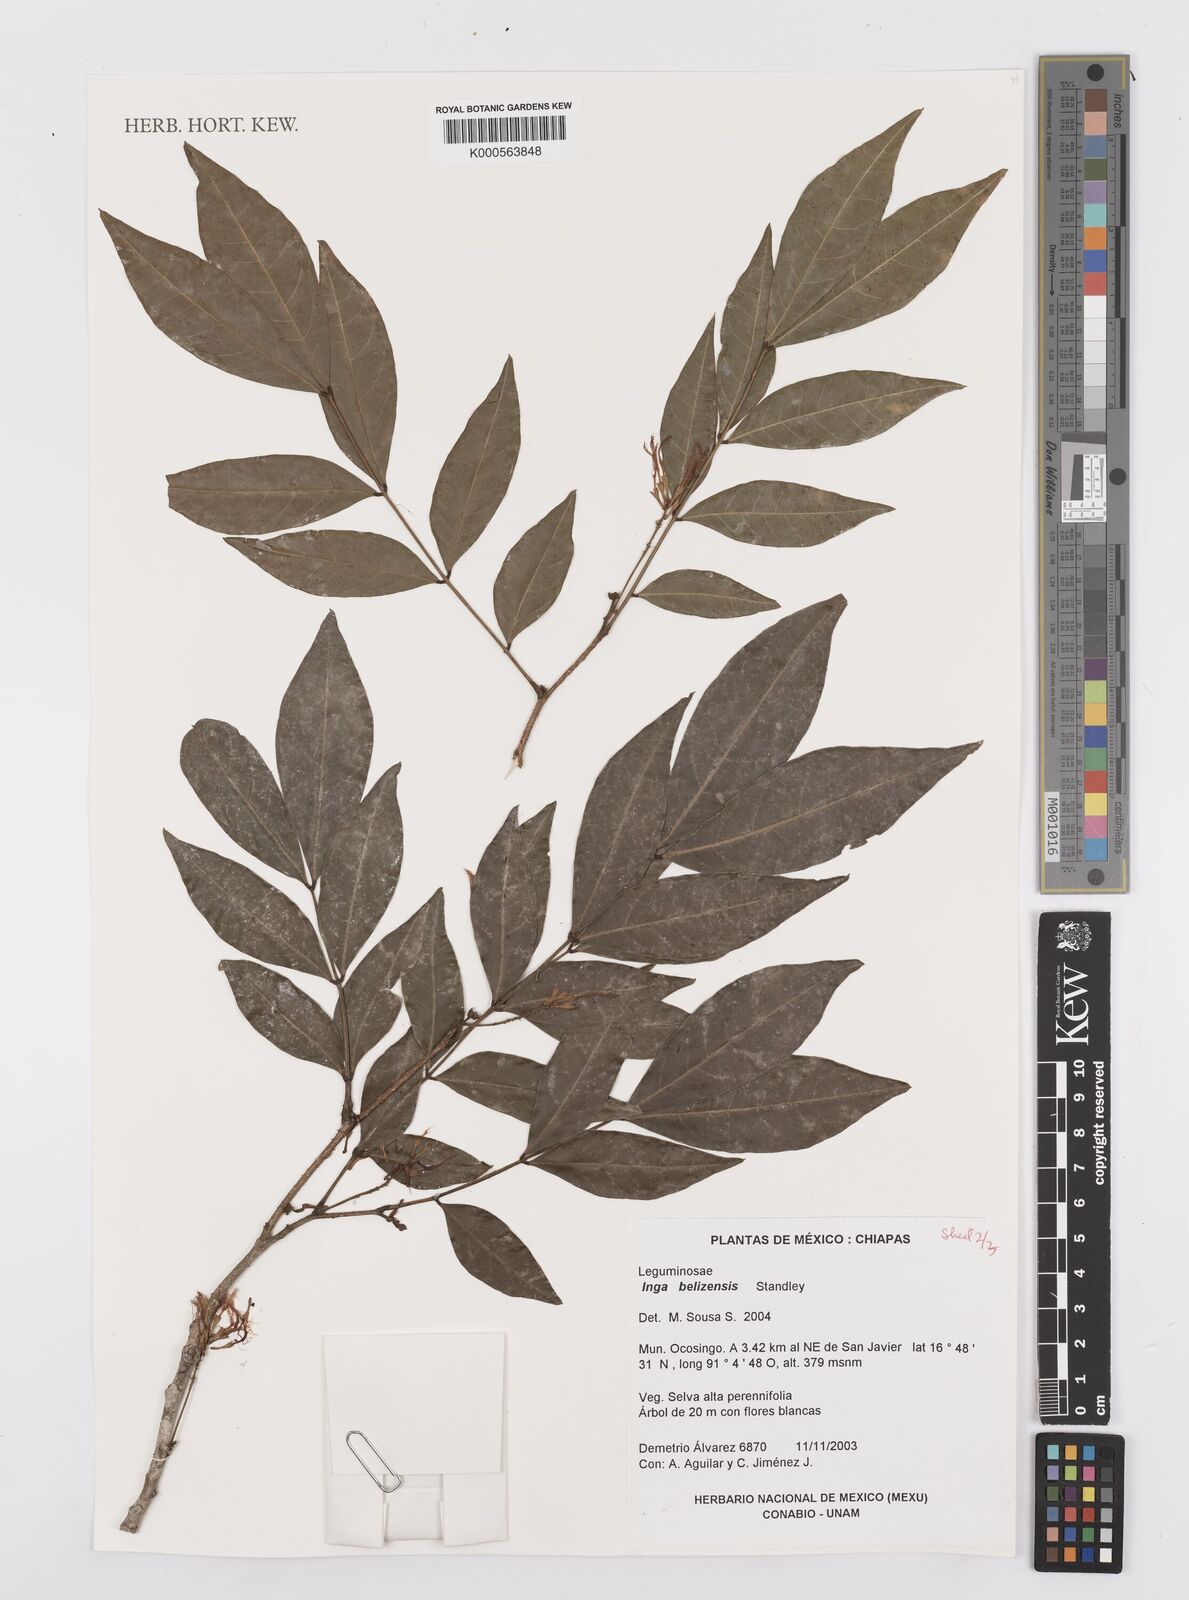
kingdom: Plantae
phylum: Tracheophyta
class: Magnoliopsida
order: Fabales
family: Fabaceae
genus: Inga
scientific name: Inga belizensis
